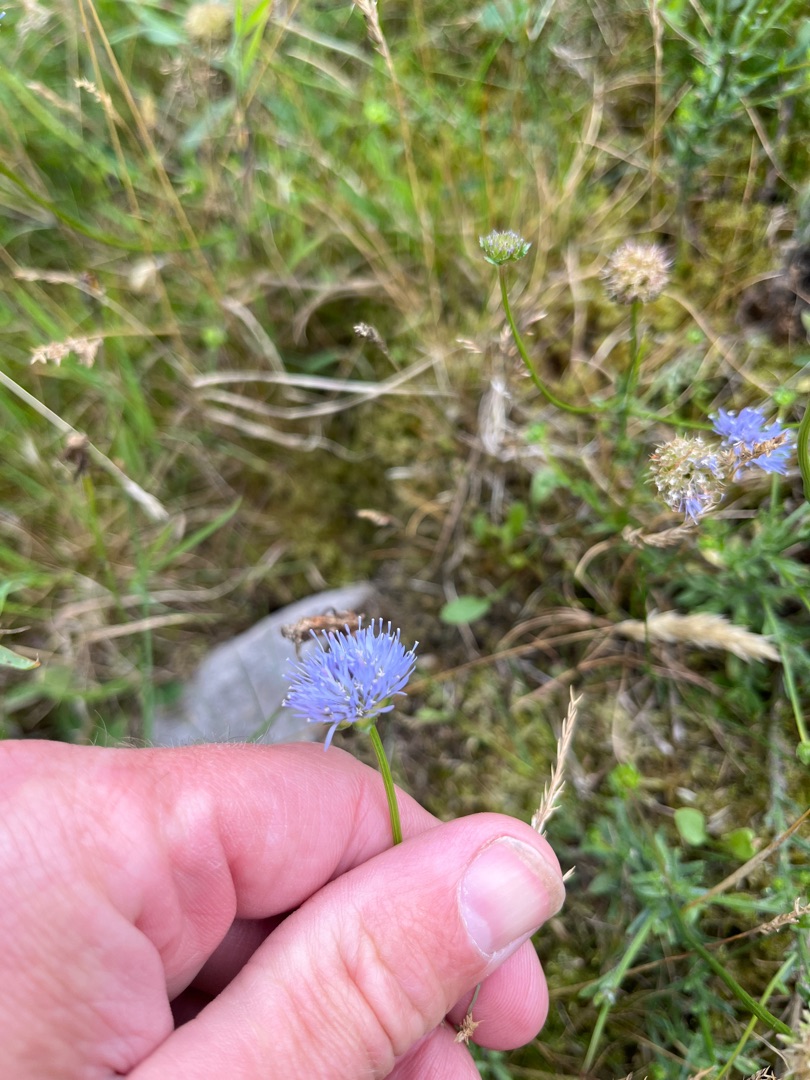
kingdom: Plantae
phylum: Tracheophyta
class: Magnoliopsida
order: Asterales
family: Campanulaceae
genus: Jasione
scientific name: Jasione montana
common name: Blåmunke
